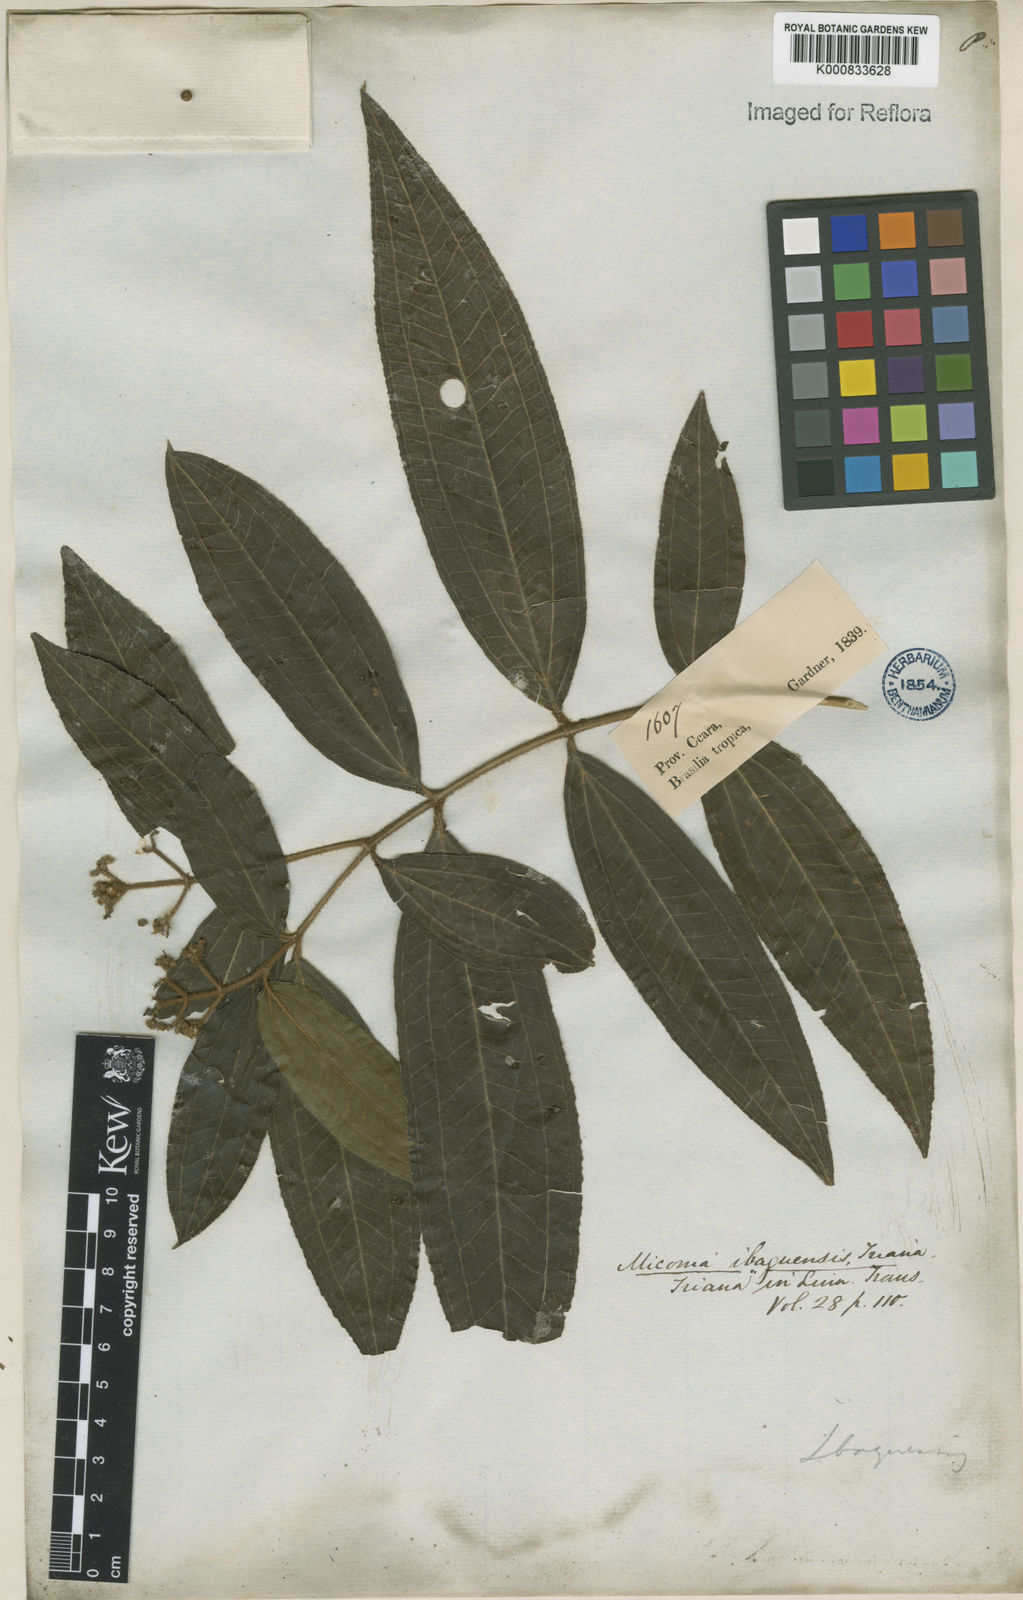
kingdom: Plantae
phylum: Tracheophyta
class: Magnoliopsida
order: Myrtales
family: Melastomataceae
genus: Miconia
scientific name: Miconia ibaguensis
